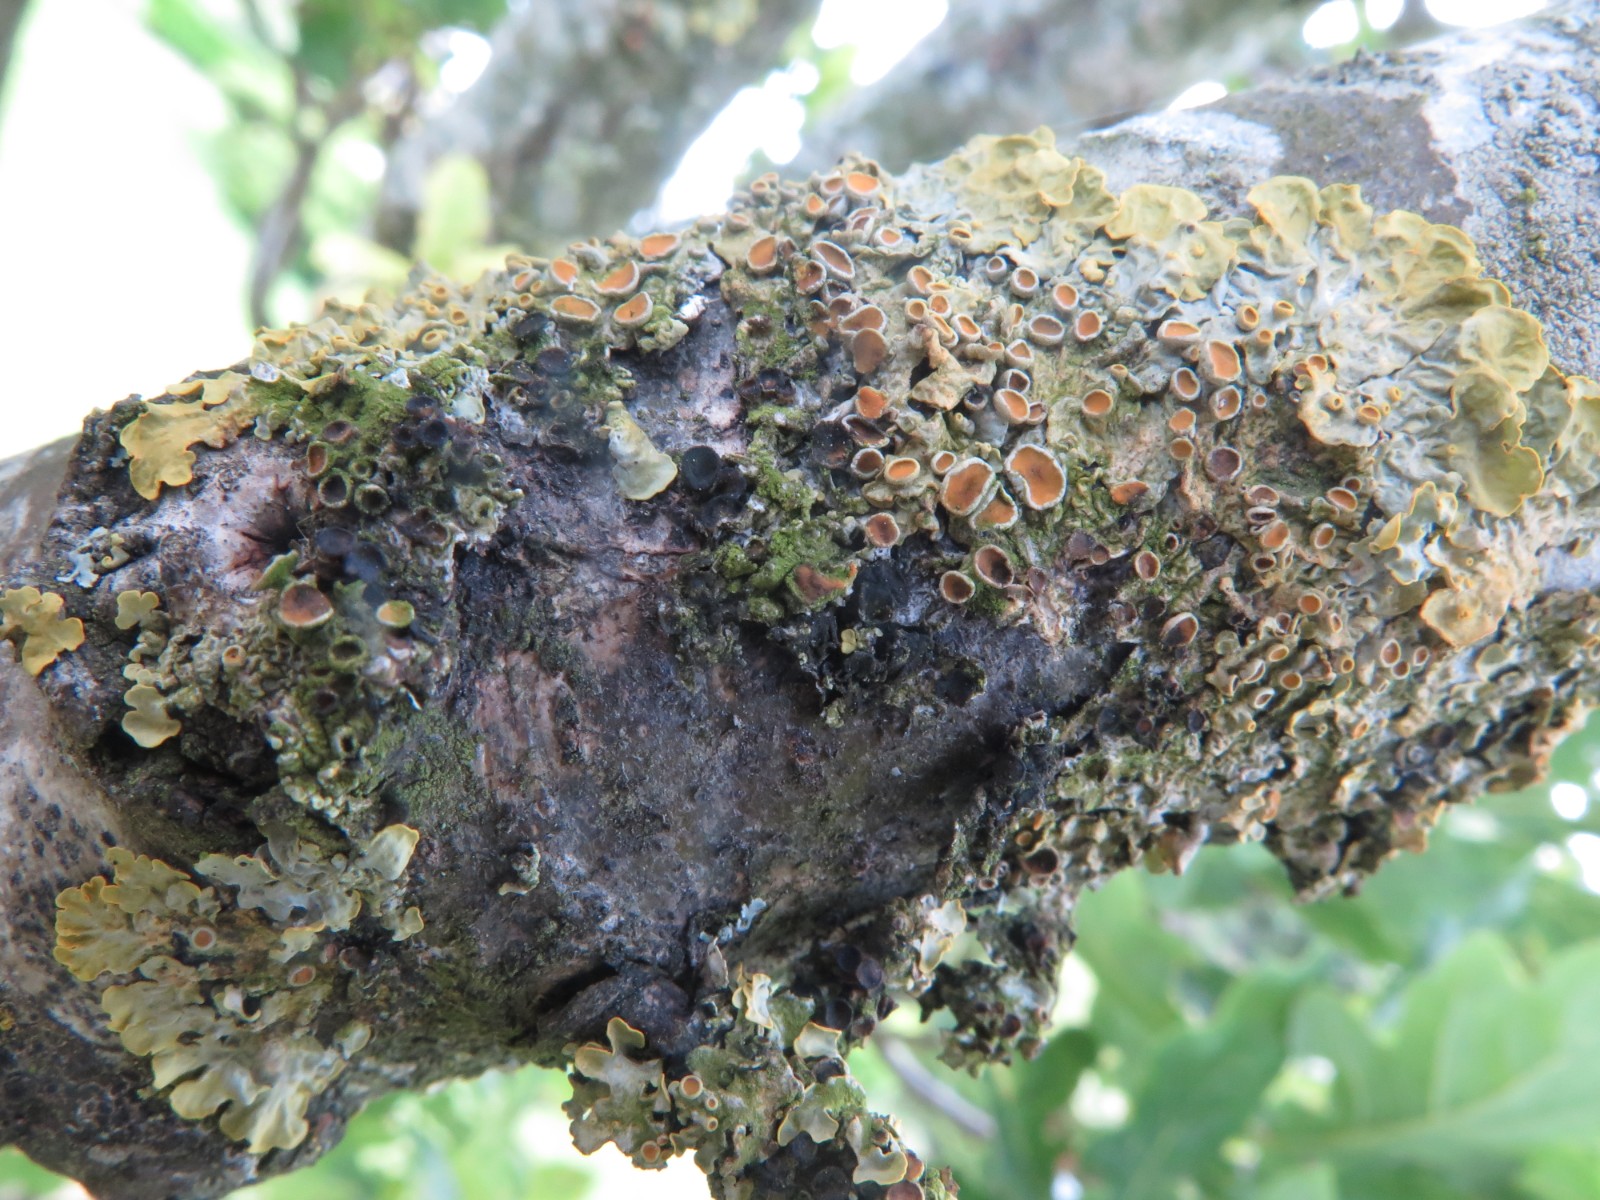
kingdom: Fungi
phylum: Ascomycota
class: Dothideomycetes
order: Mycosphaerellales
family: Teratosphaeriaceae
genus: Xanthoriicola
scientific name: Xanthoriicola physciae
